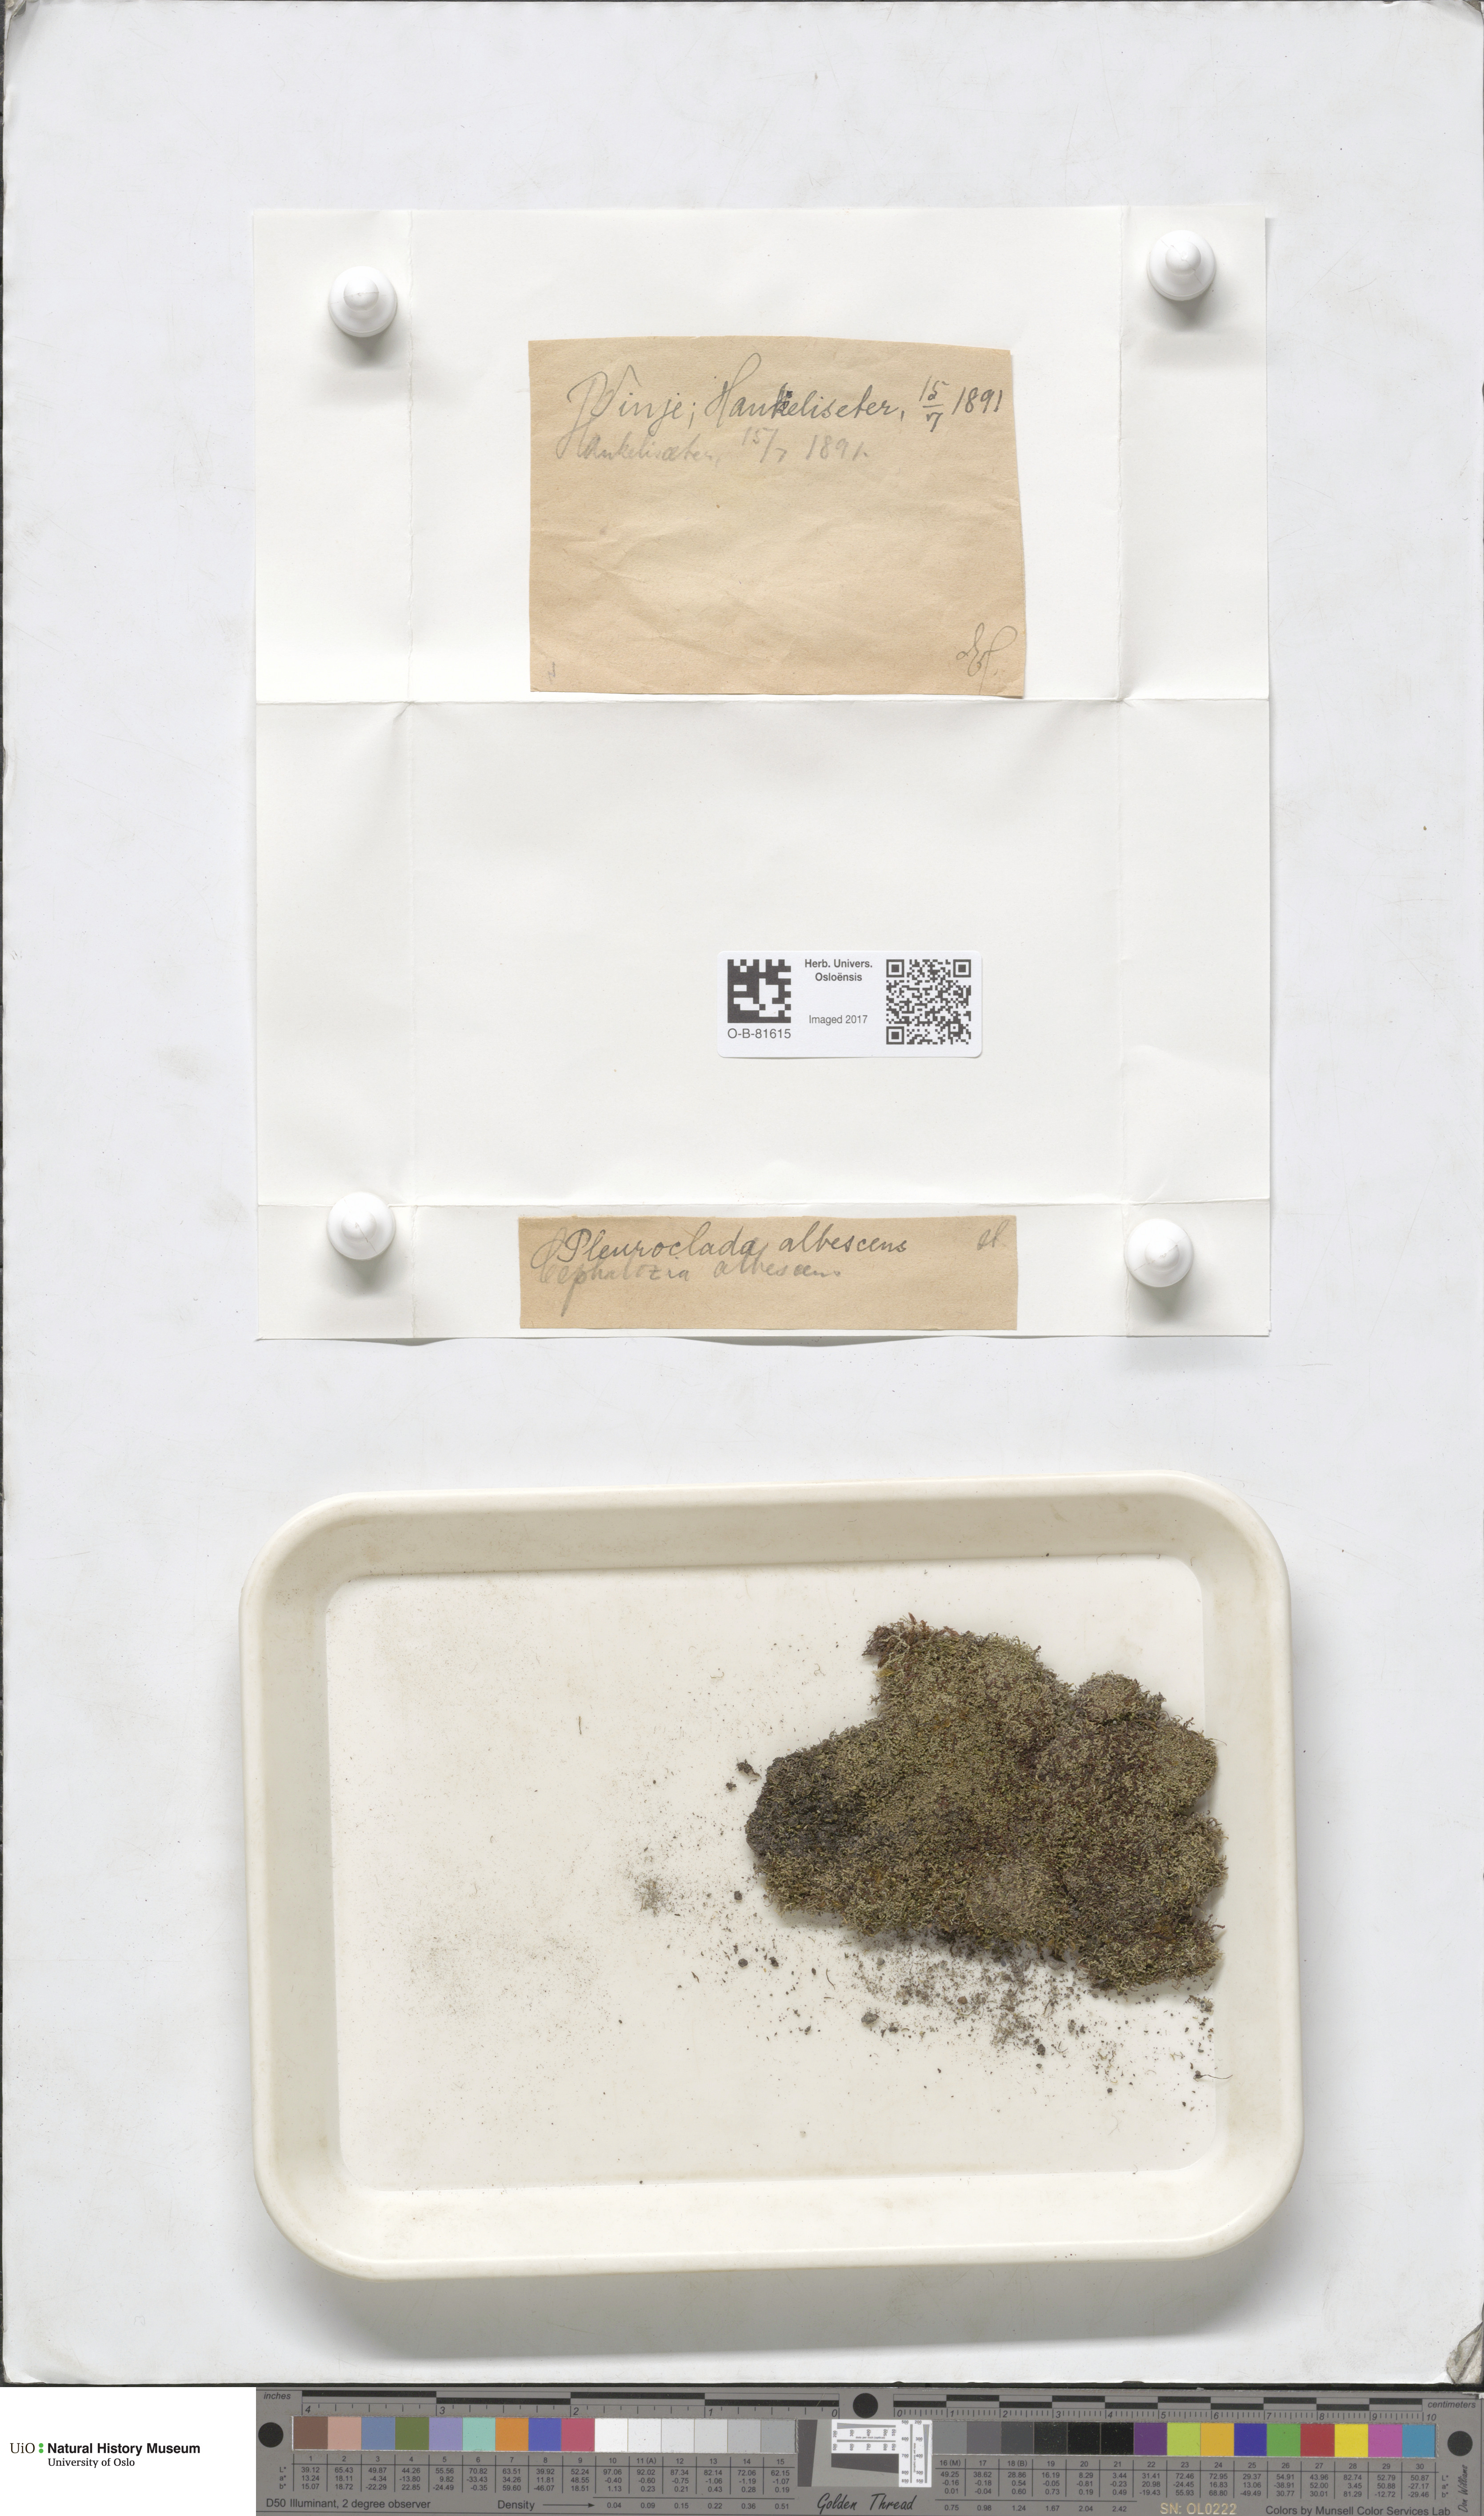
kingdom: Plantae
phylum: Marchantiophyta
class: Jungermanniopsida
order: Jungermanniales
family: Cephaloziaceae
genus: Fuscocephaloziopsis
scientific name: Fuscocephaloziopsis albescens
